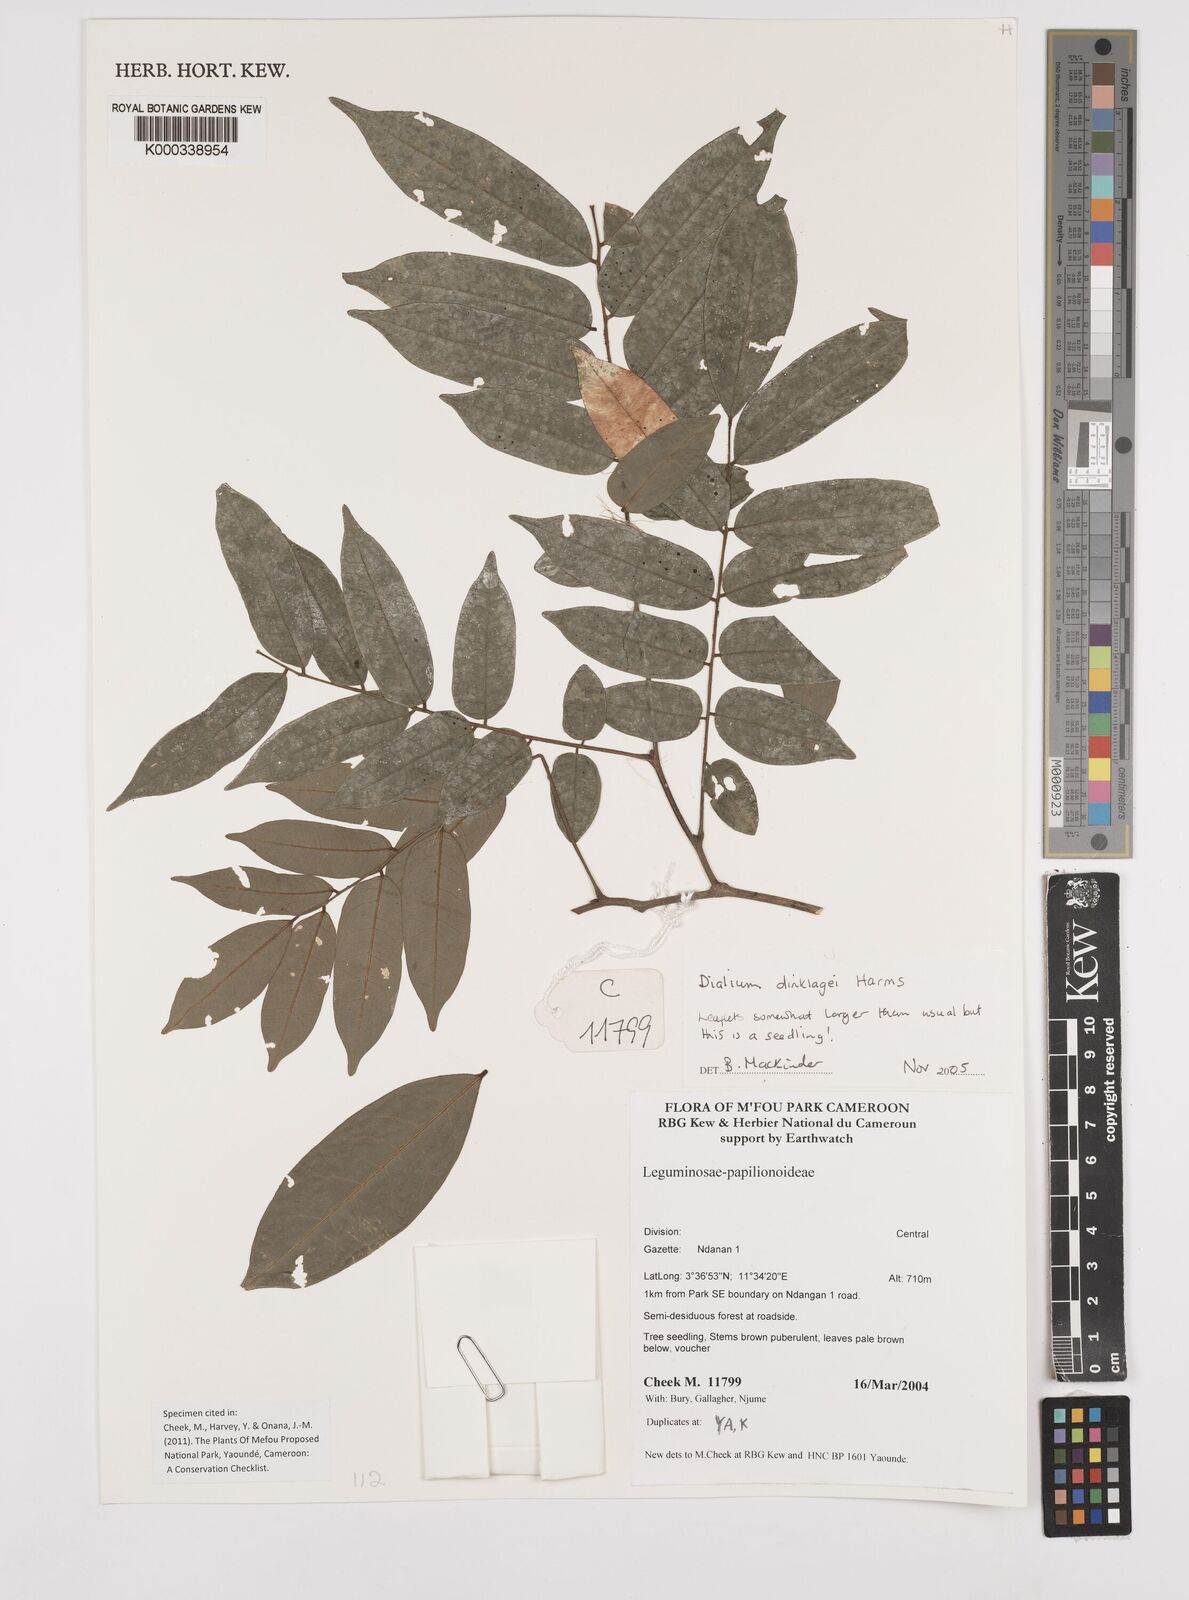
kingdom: Plantae
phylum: Tracheophyta
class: Magnoliopsida
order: Fabales
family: Fabaceae
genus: Dialium
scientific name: Dialium dinklagei
